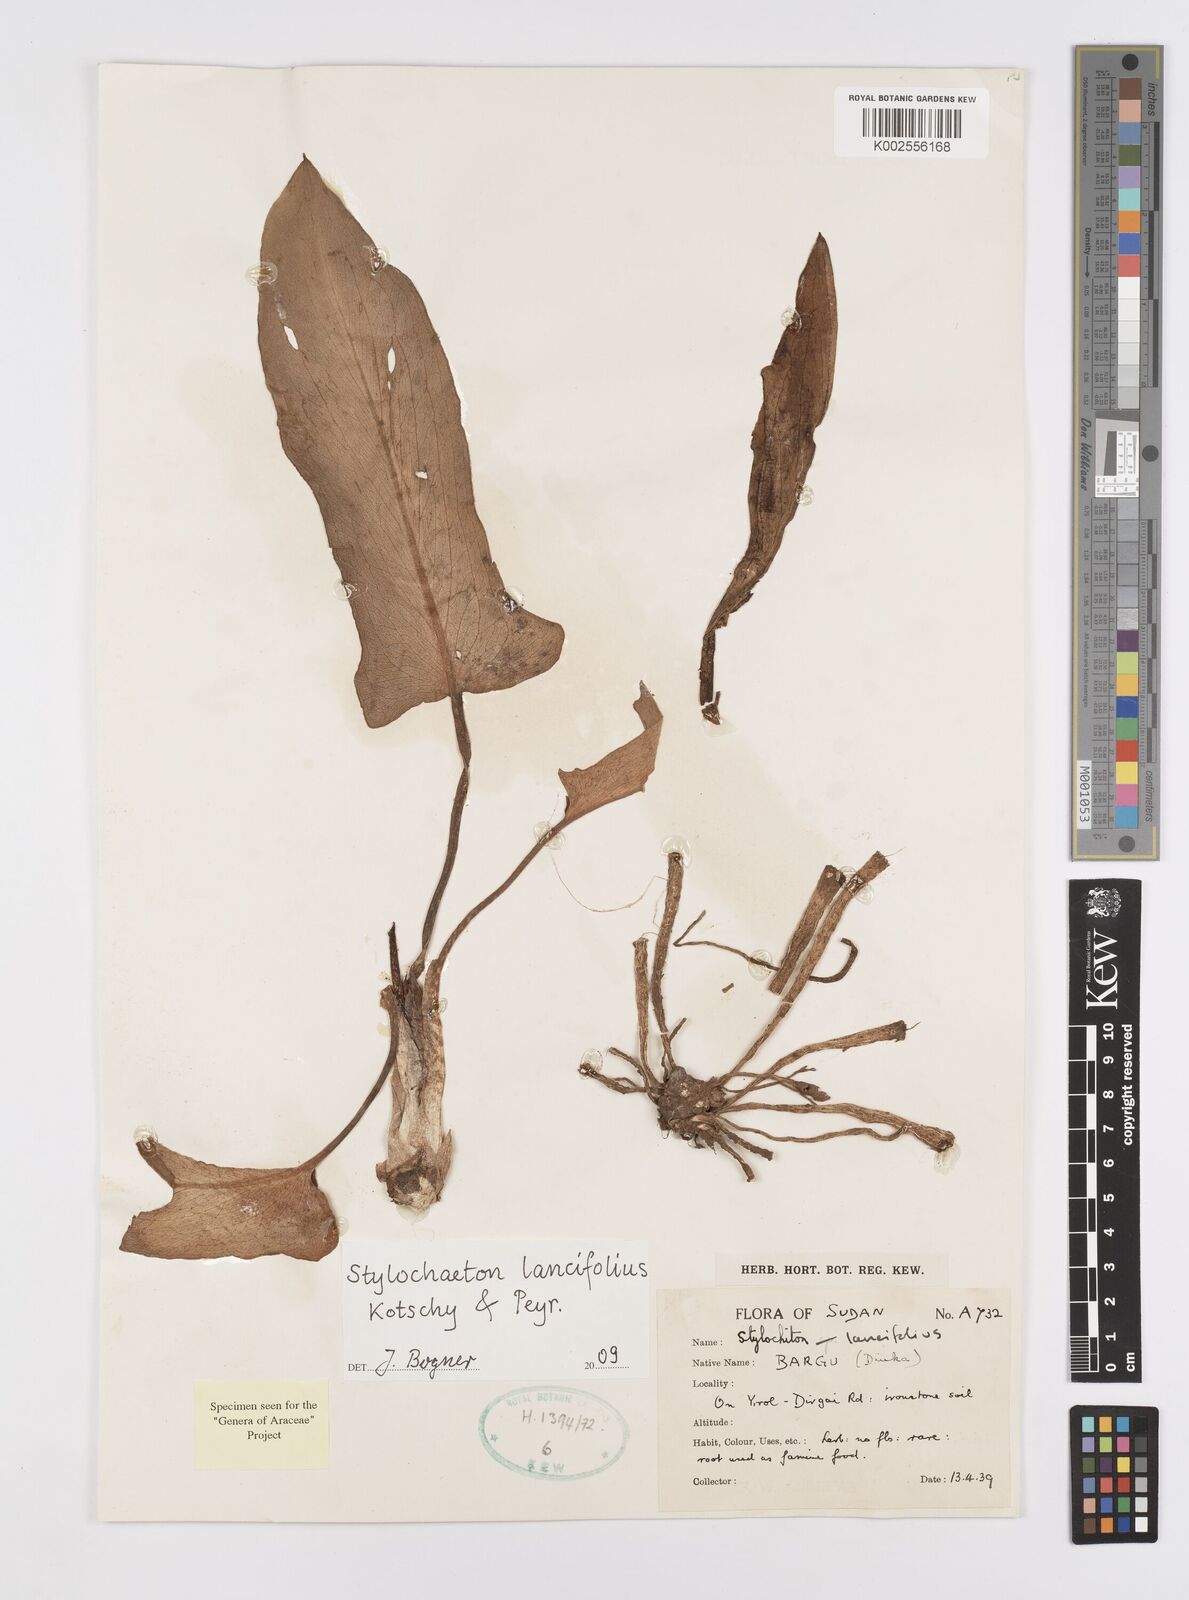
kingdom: Plantae
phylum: Tracheophyta
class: Liliopsida
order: Alismatales
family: Araceae
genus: Stylochaeton
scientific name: Stylochaeton lancifolium
